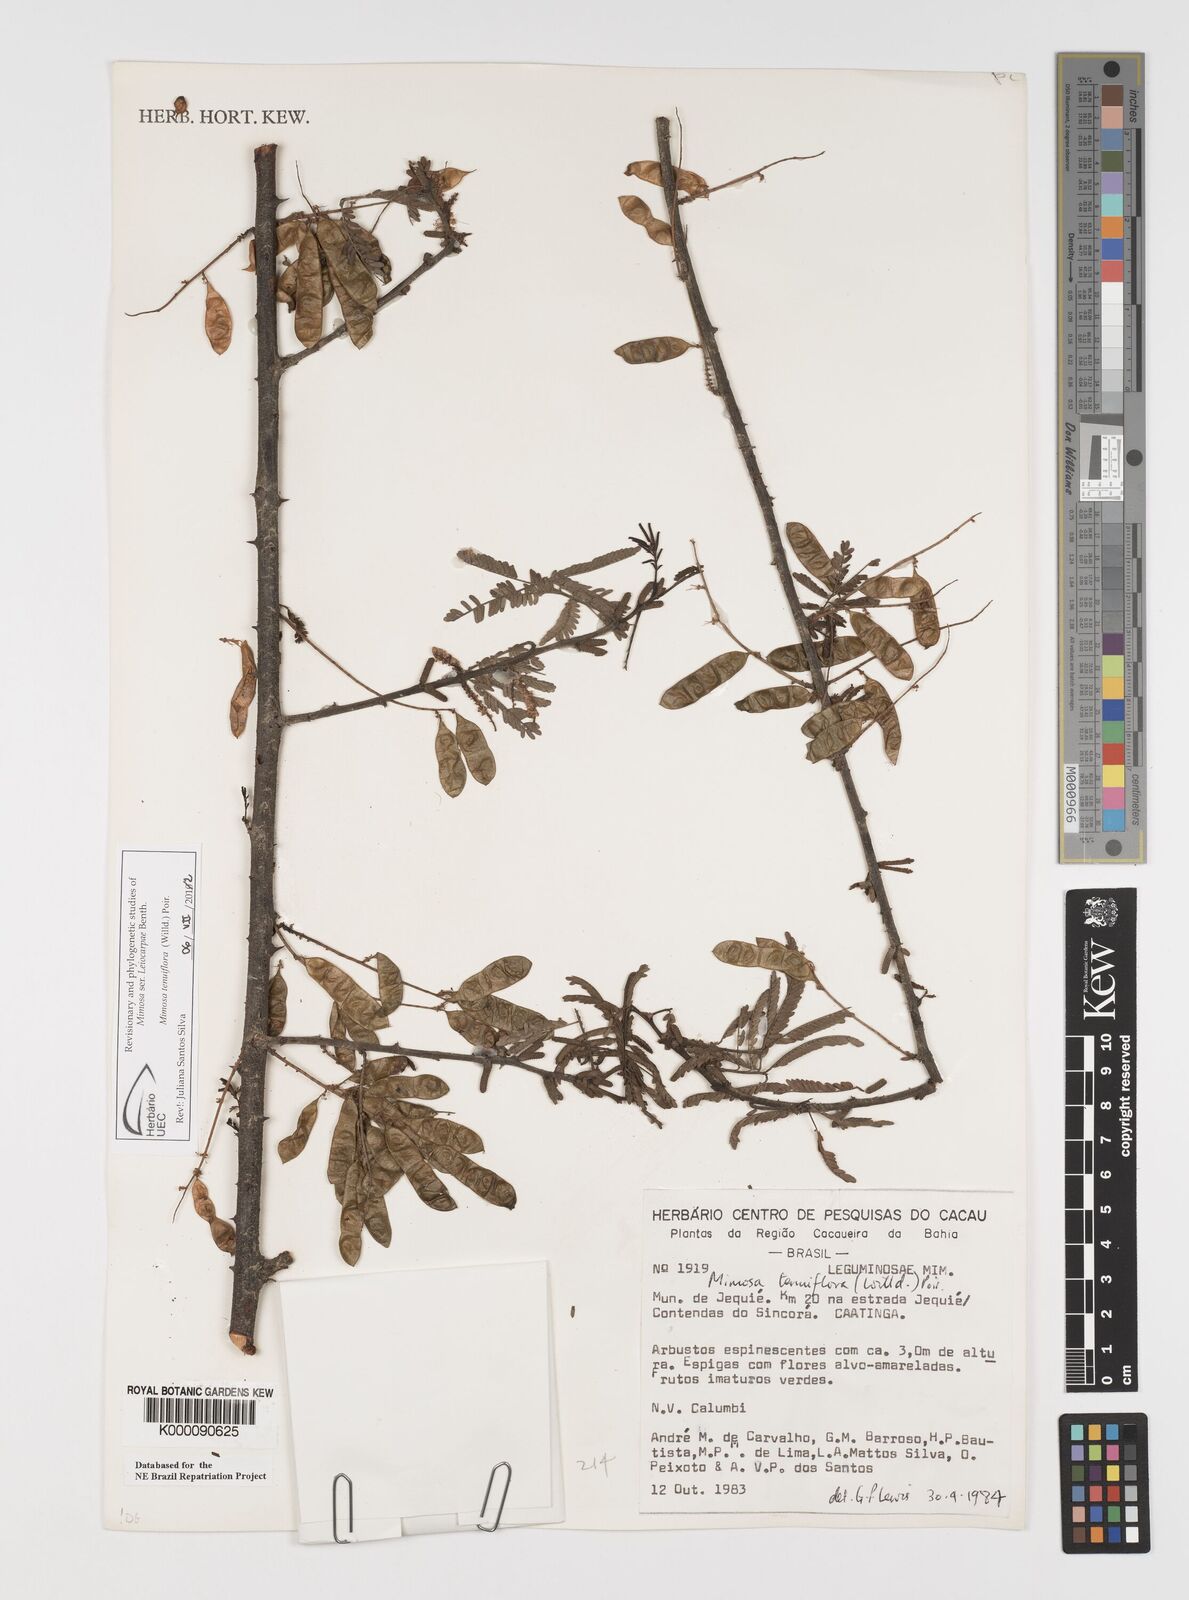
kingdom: Plantae
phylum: Tracheophyta
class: Magnoliopsida
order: Fabales
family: Fabaceae
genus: Mimosa
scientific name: Mimosa tenuiflora
